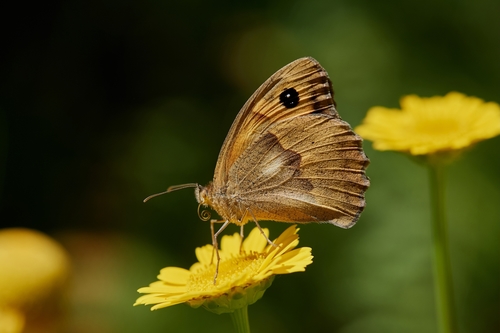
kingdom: Animalia
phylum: Arthropoda
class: Insecta
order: Lepidoptera
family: Nymphalidae
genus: Maniola
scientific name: Maniola jurtina
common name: Meadow brown
